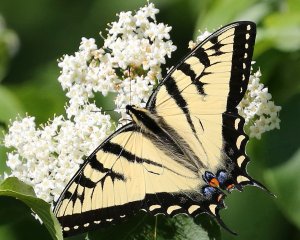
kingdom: Animalia
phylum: Arthropoda
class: Insecta
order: Lepidoptera
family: Papilionidae
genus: Pterourus
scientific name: Pterourus canadensis
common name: Canadian Tiger Swallowtail
